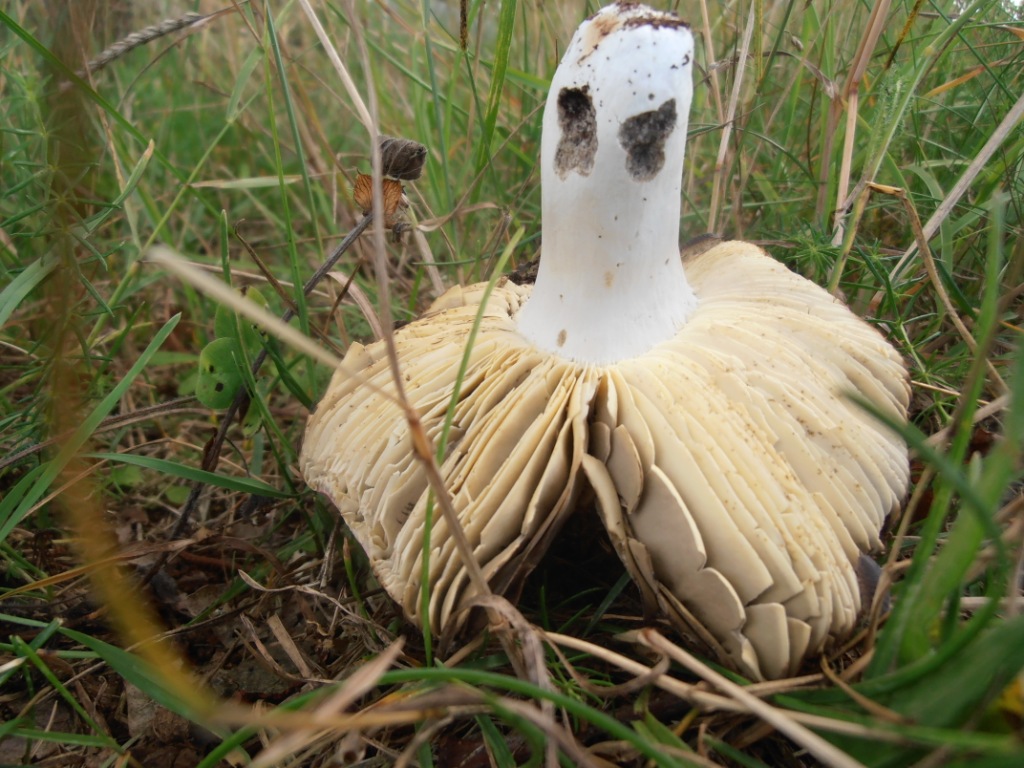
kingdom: Fungi
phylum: Basidiomycota
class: Agaricomycetes
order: Russulales
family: Russulaceae
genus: Russula
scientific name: Russula seperina
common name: rødmende skørhat
